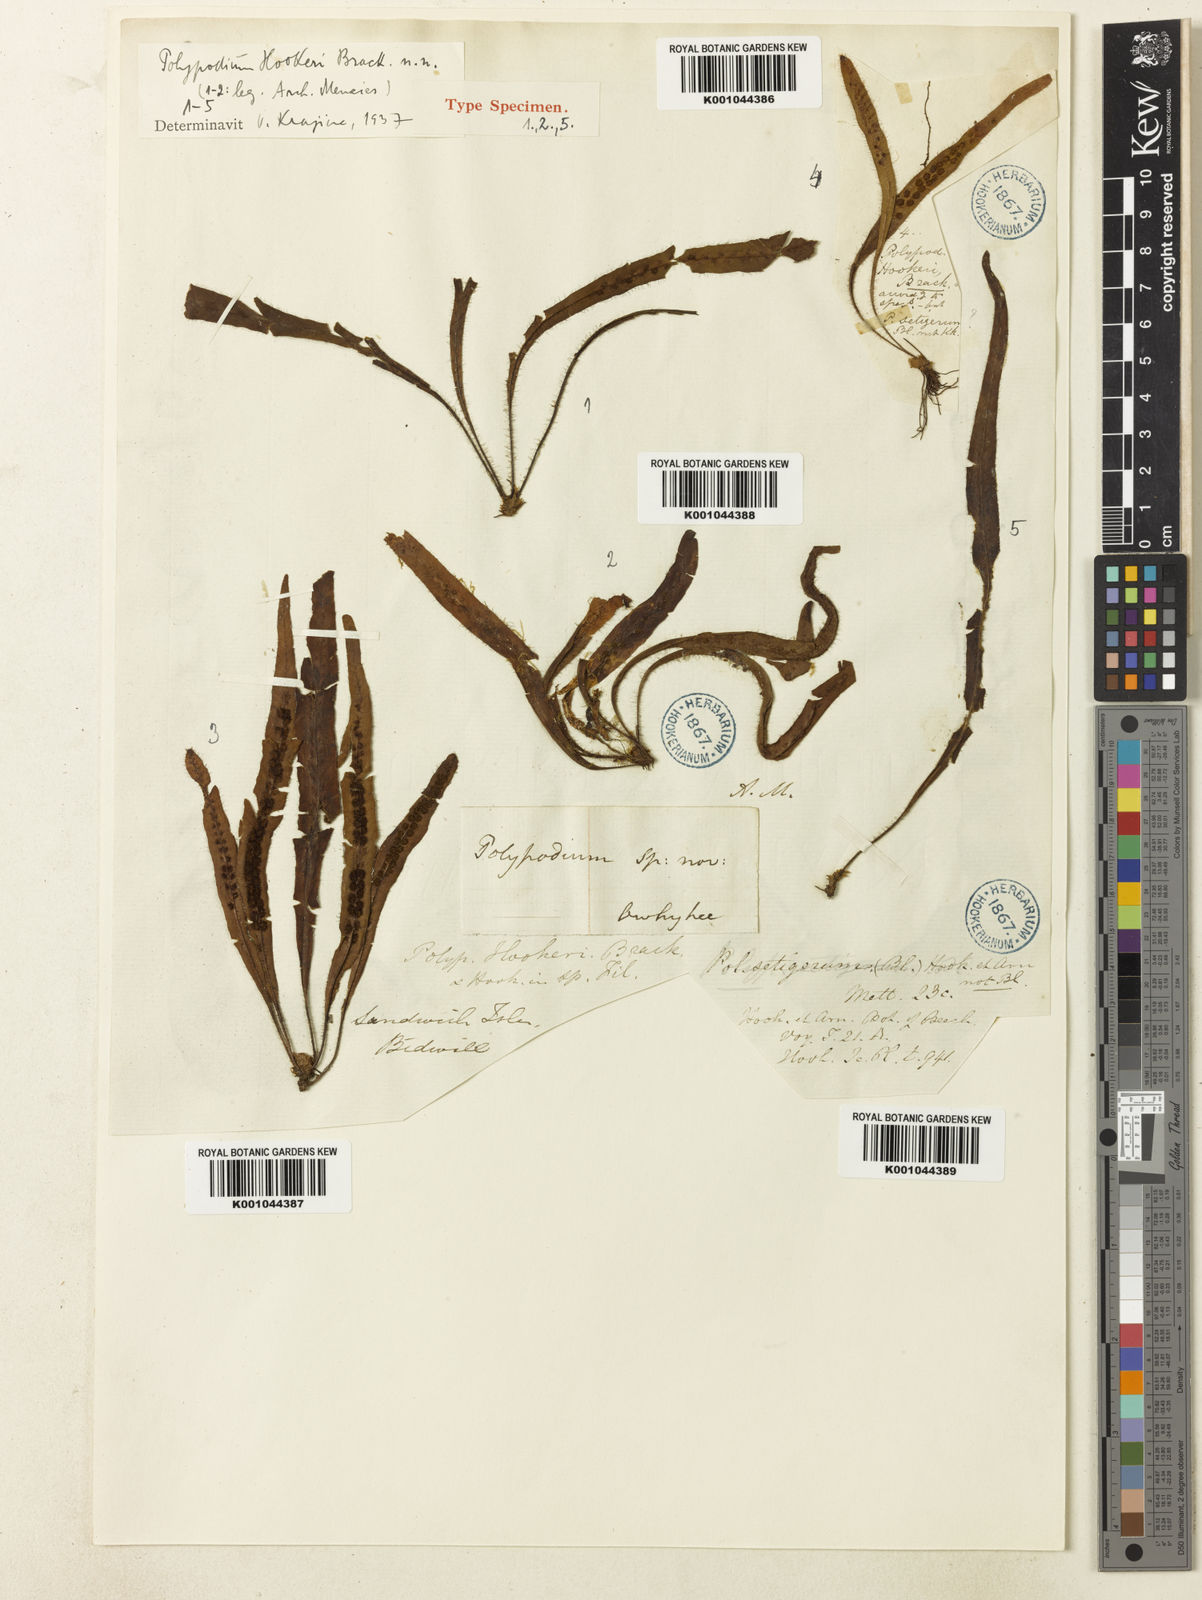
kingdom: Plantae
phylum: Tracheophyta
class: Polypodiopsida
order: Polypodiales
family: Polypodiaceae
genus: Oreogrammitis
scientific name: Oreogrammitis hookeri
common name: Hooker's dwarf polypody
